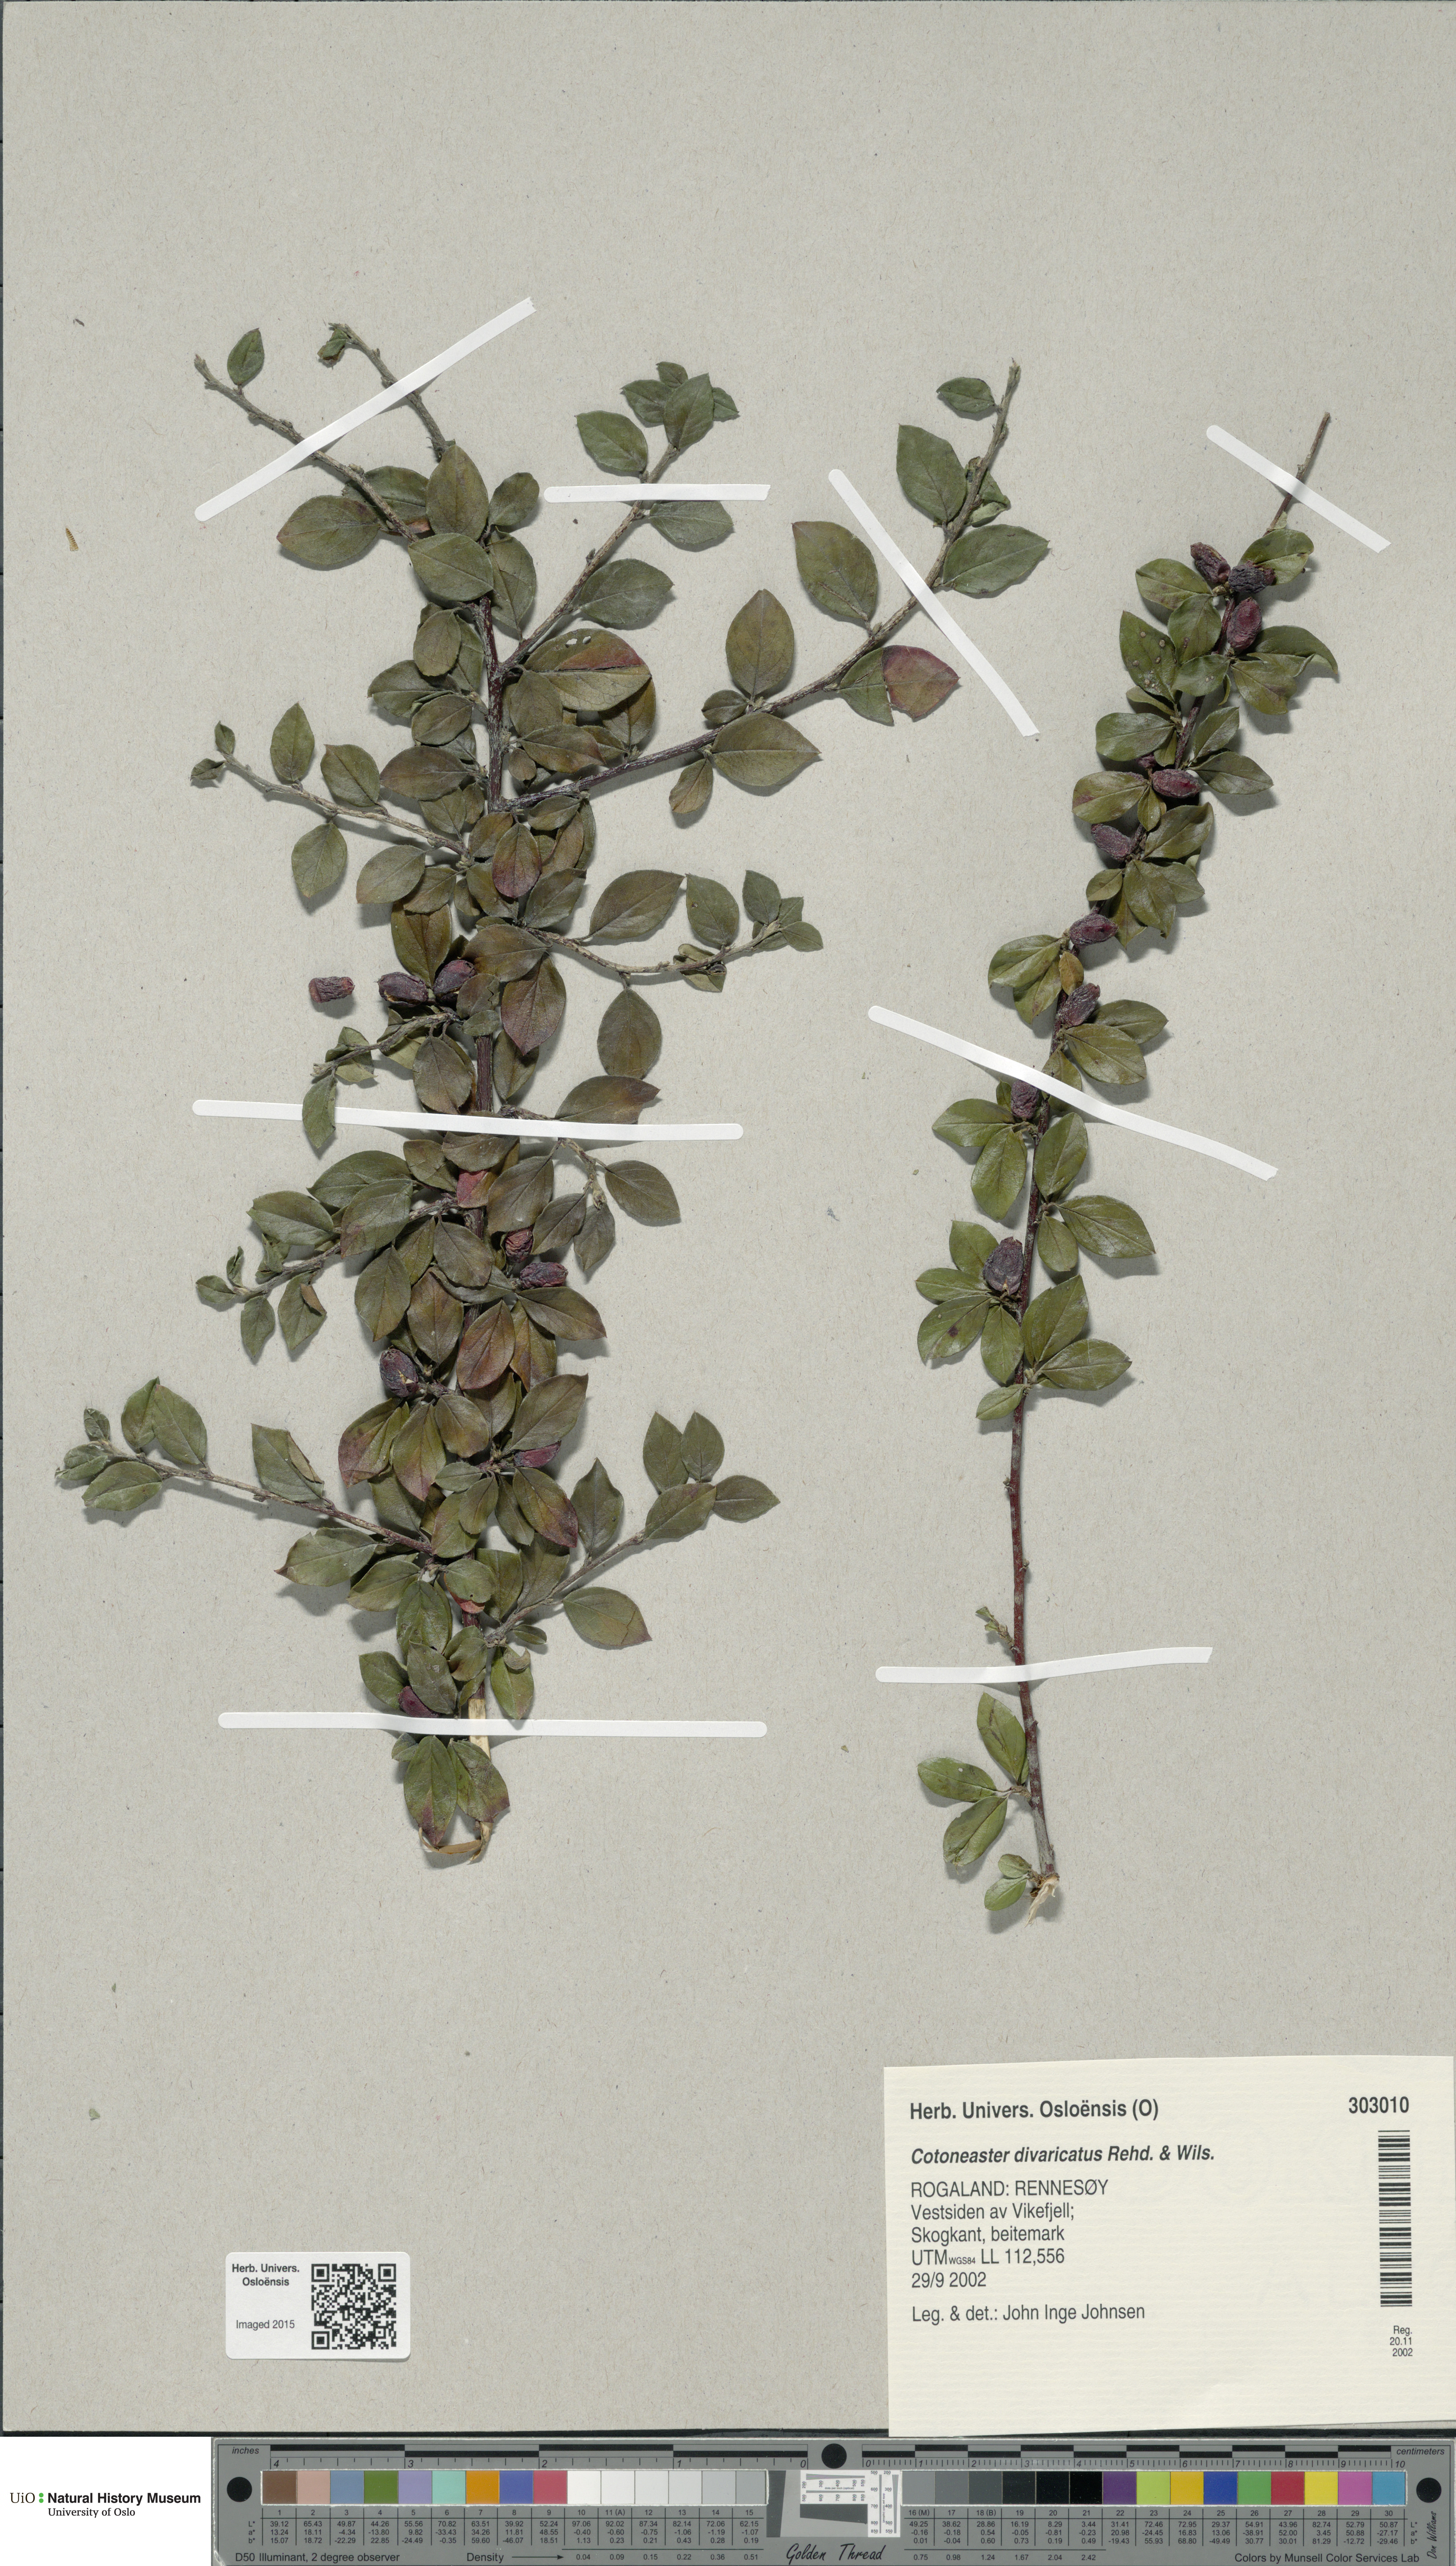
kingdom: Plantae
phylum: Tracheophyta
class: Magnoliopsida
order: Rosales
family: Rosaceae
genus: Cotoneaster
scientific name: Cotoneaster divaricatus
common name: Spreading cotoneaster
